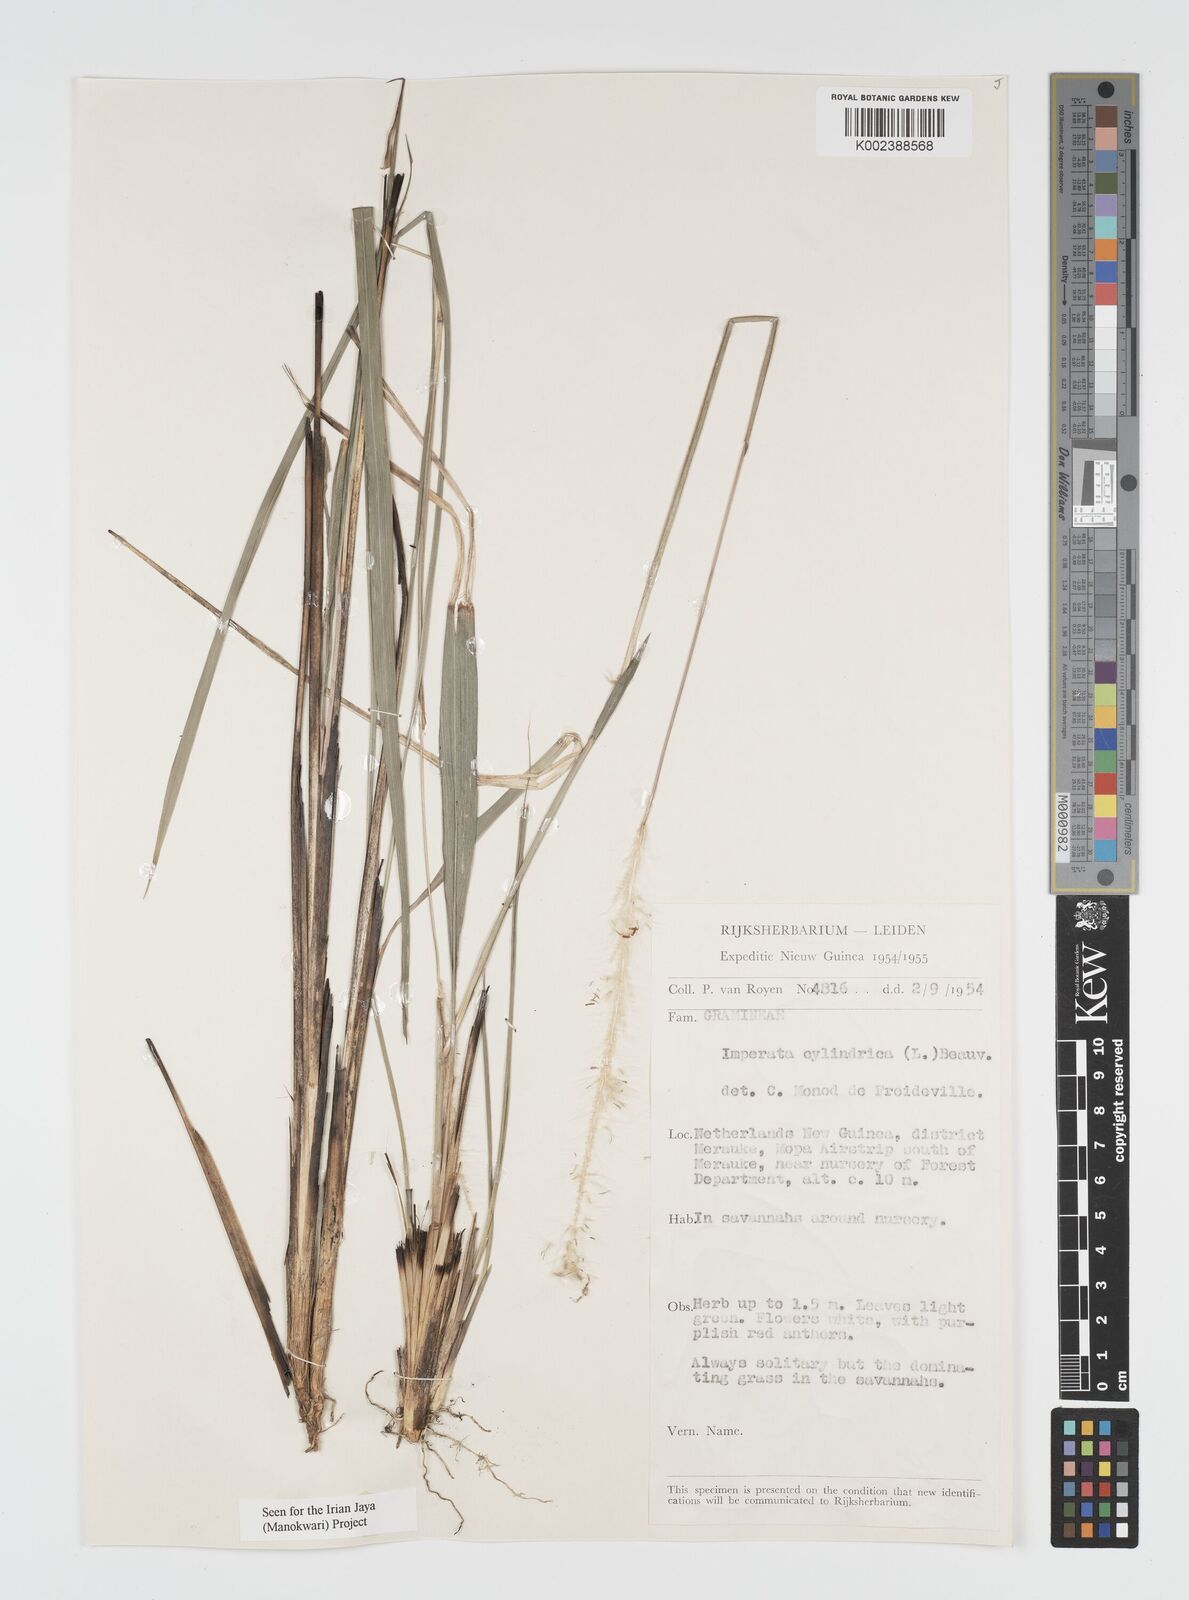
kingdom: Plantae
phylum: Tracheophyta
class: Liliopsida
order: Poales
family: Poaceae
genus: Imperata
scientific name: Imperata cylindrica
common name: Cogongrass
